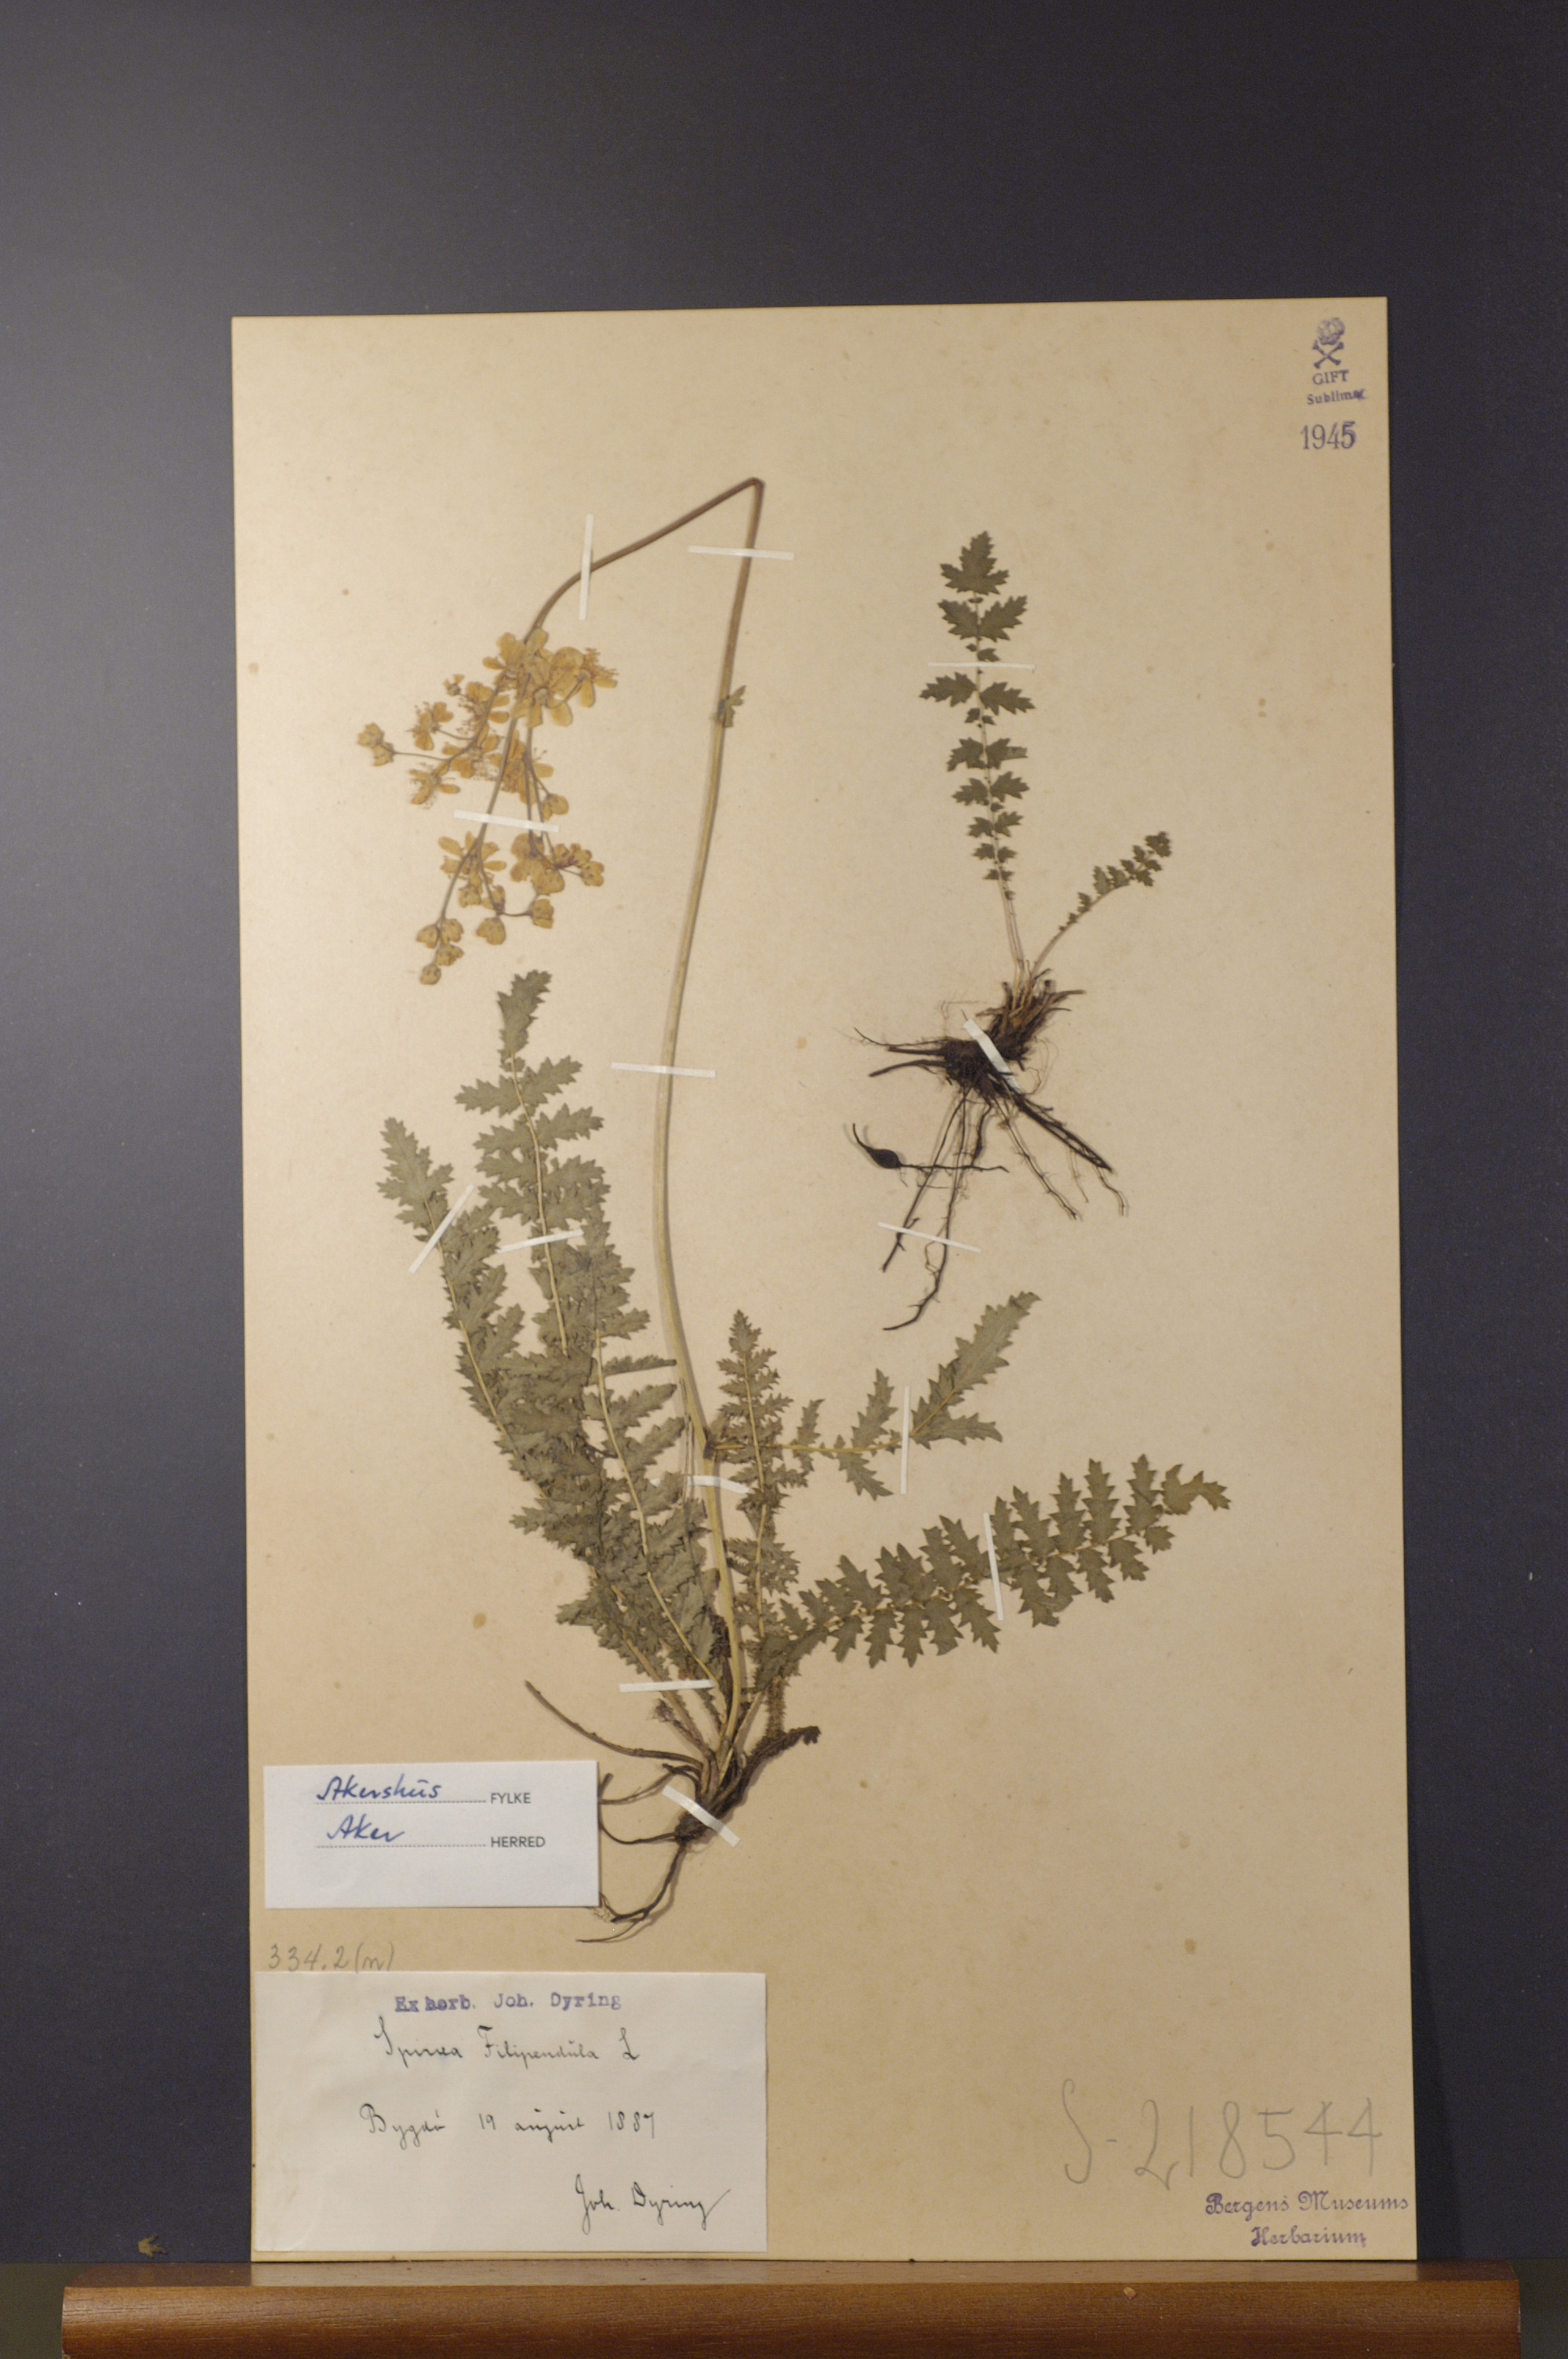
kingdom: Plantae
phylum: Tracheophyta
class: Magnoliopsida
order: Rosales
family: Rosaceae
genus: Filipendula
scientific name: Filipendula vulgaris
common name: Dropwort
